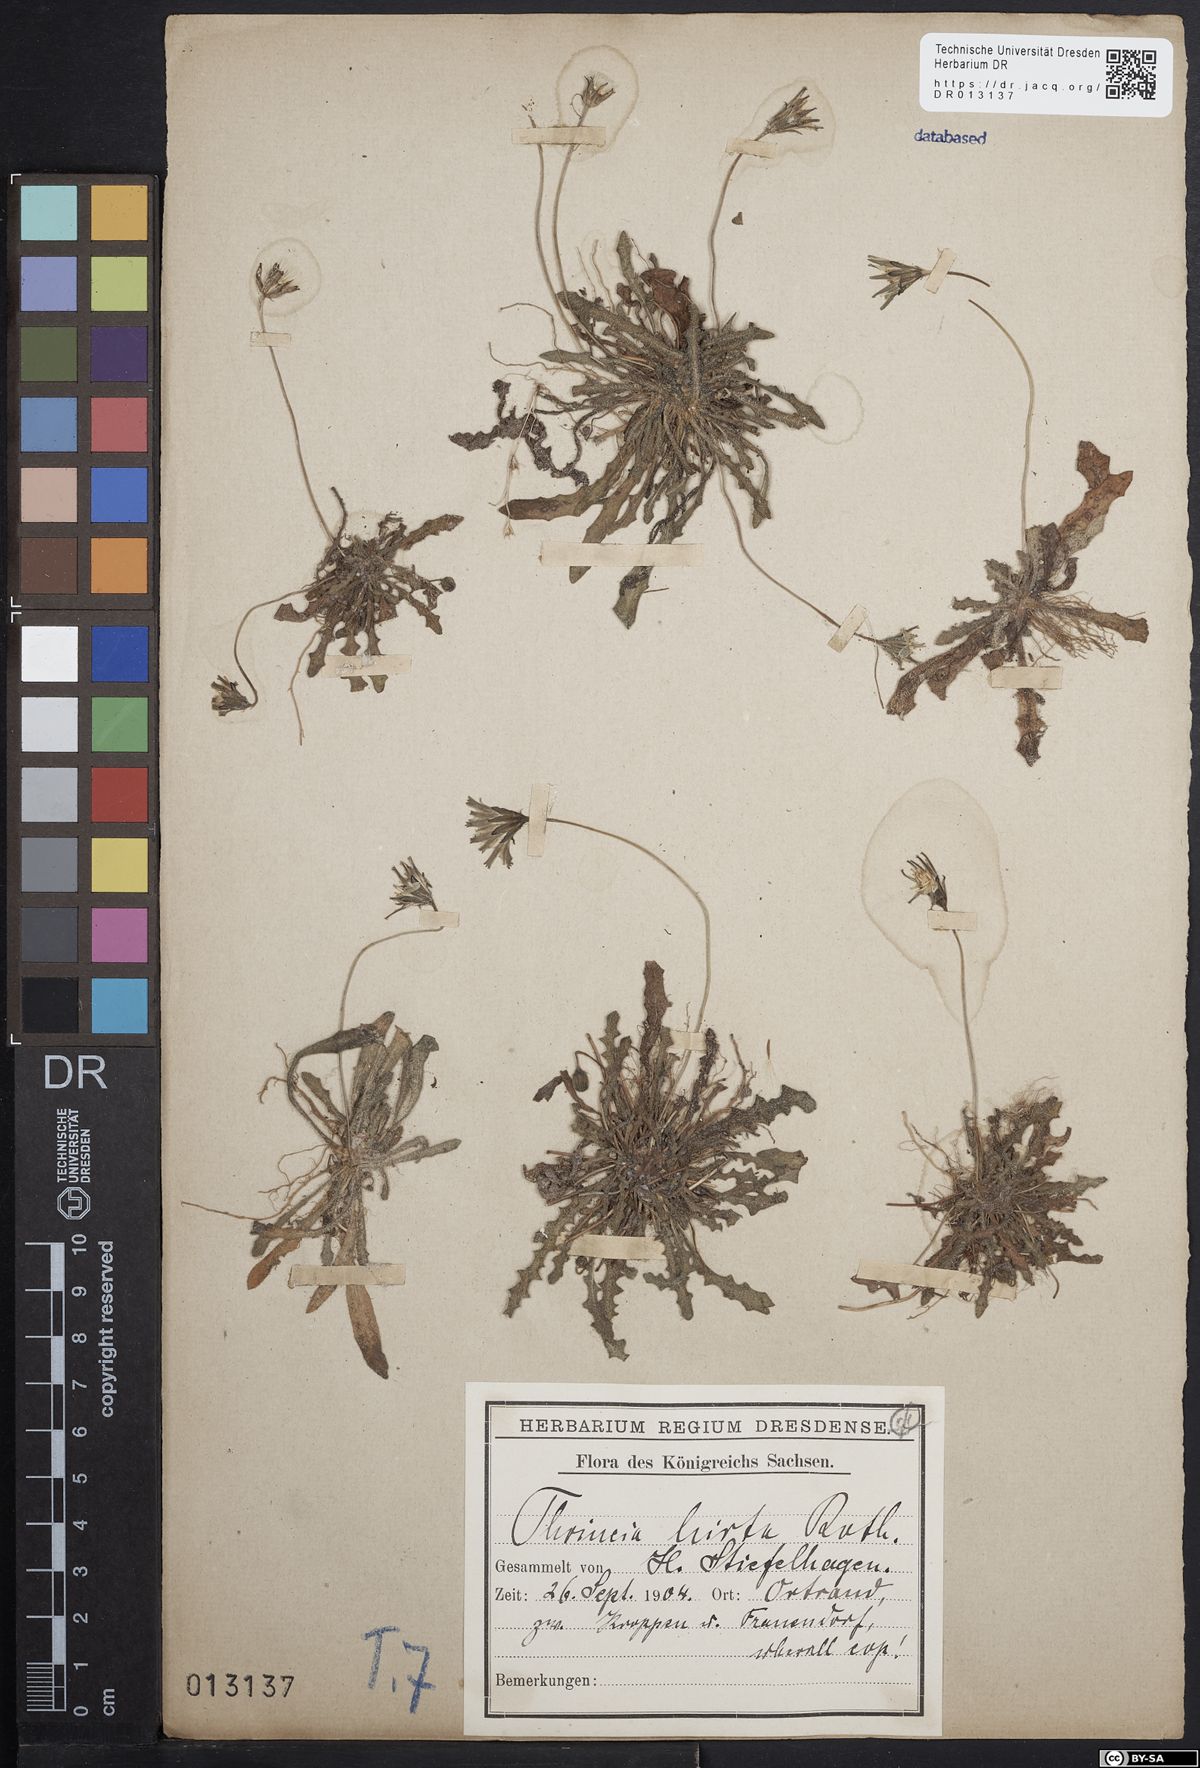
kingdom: Plantae
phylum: Tracheophyta
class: Magnoliopsida
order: Asterales
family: Asteraceae
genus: Thrincia
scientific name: Thrincia saxatilis
